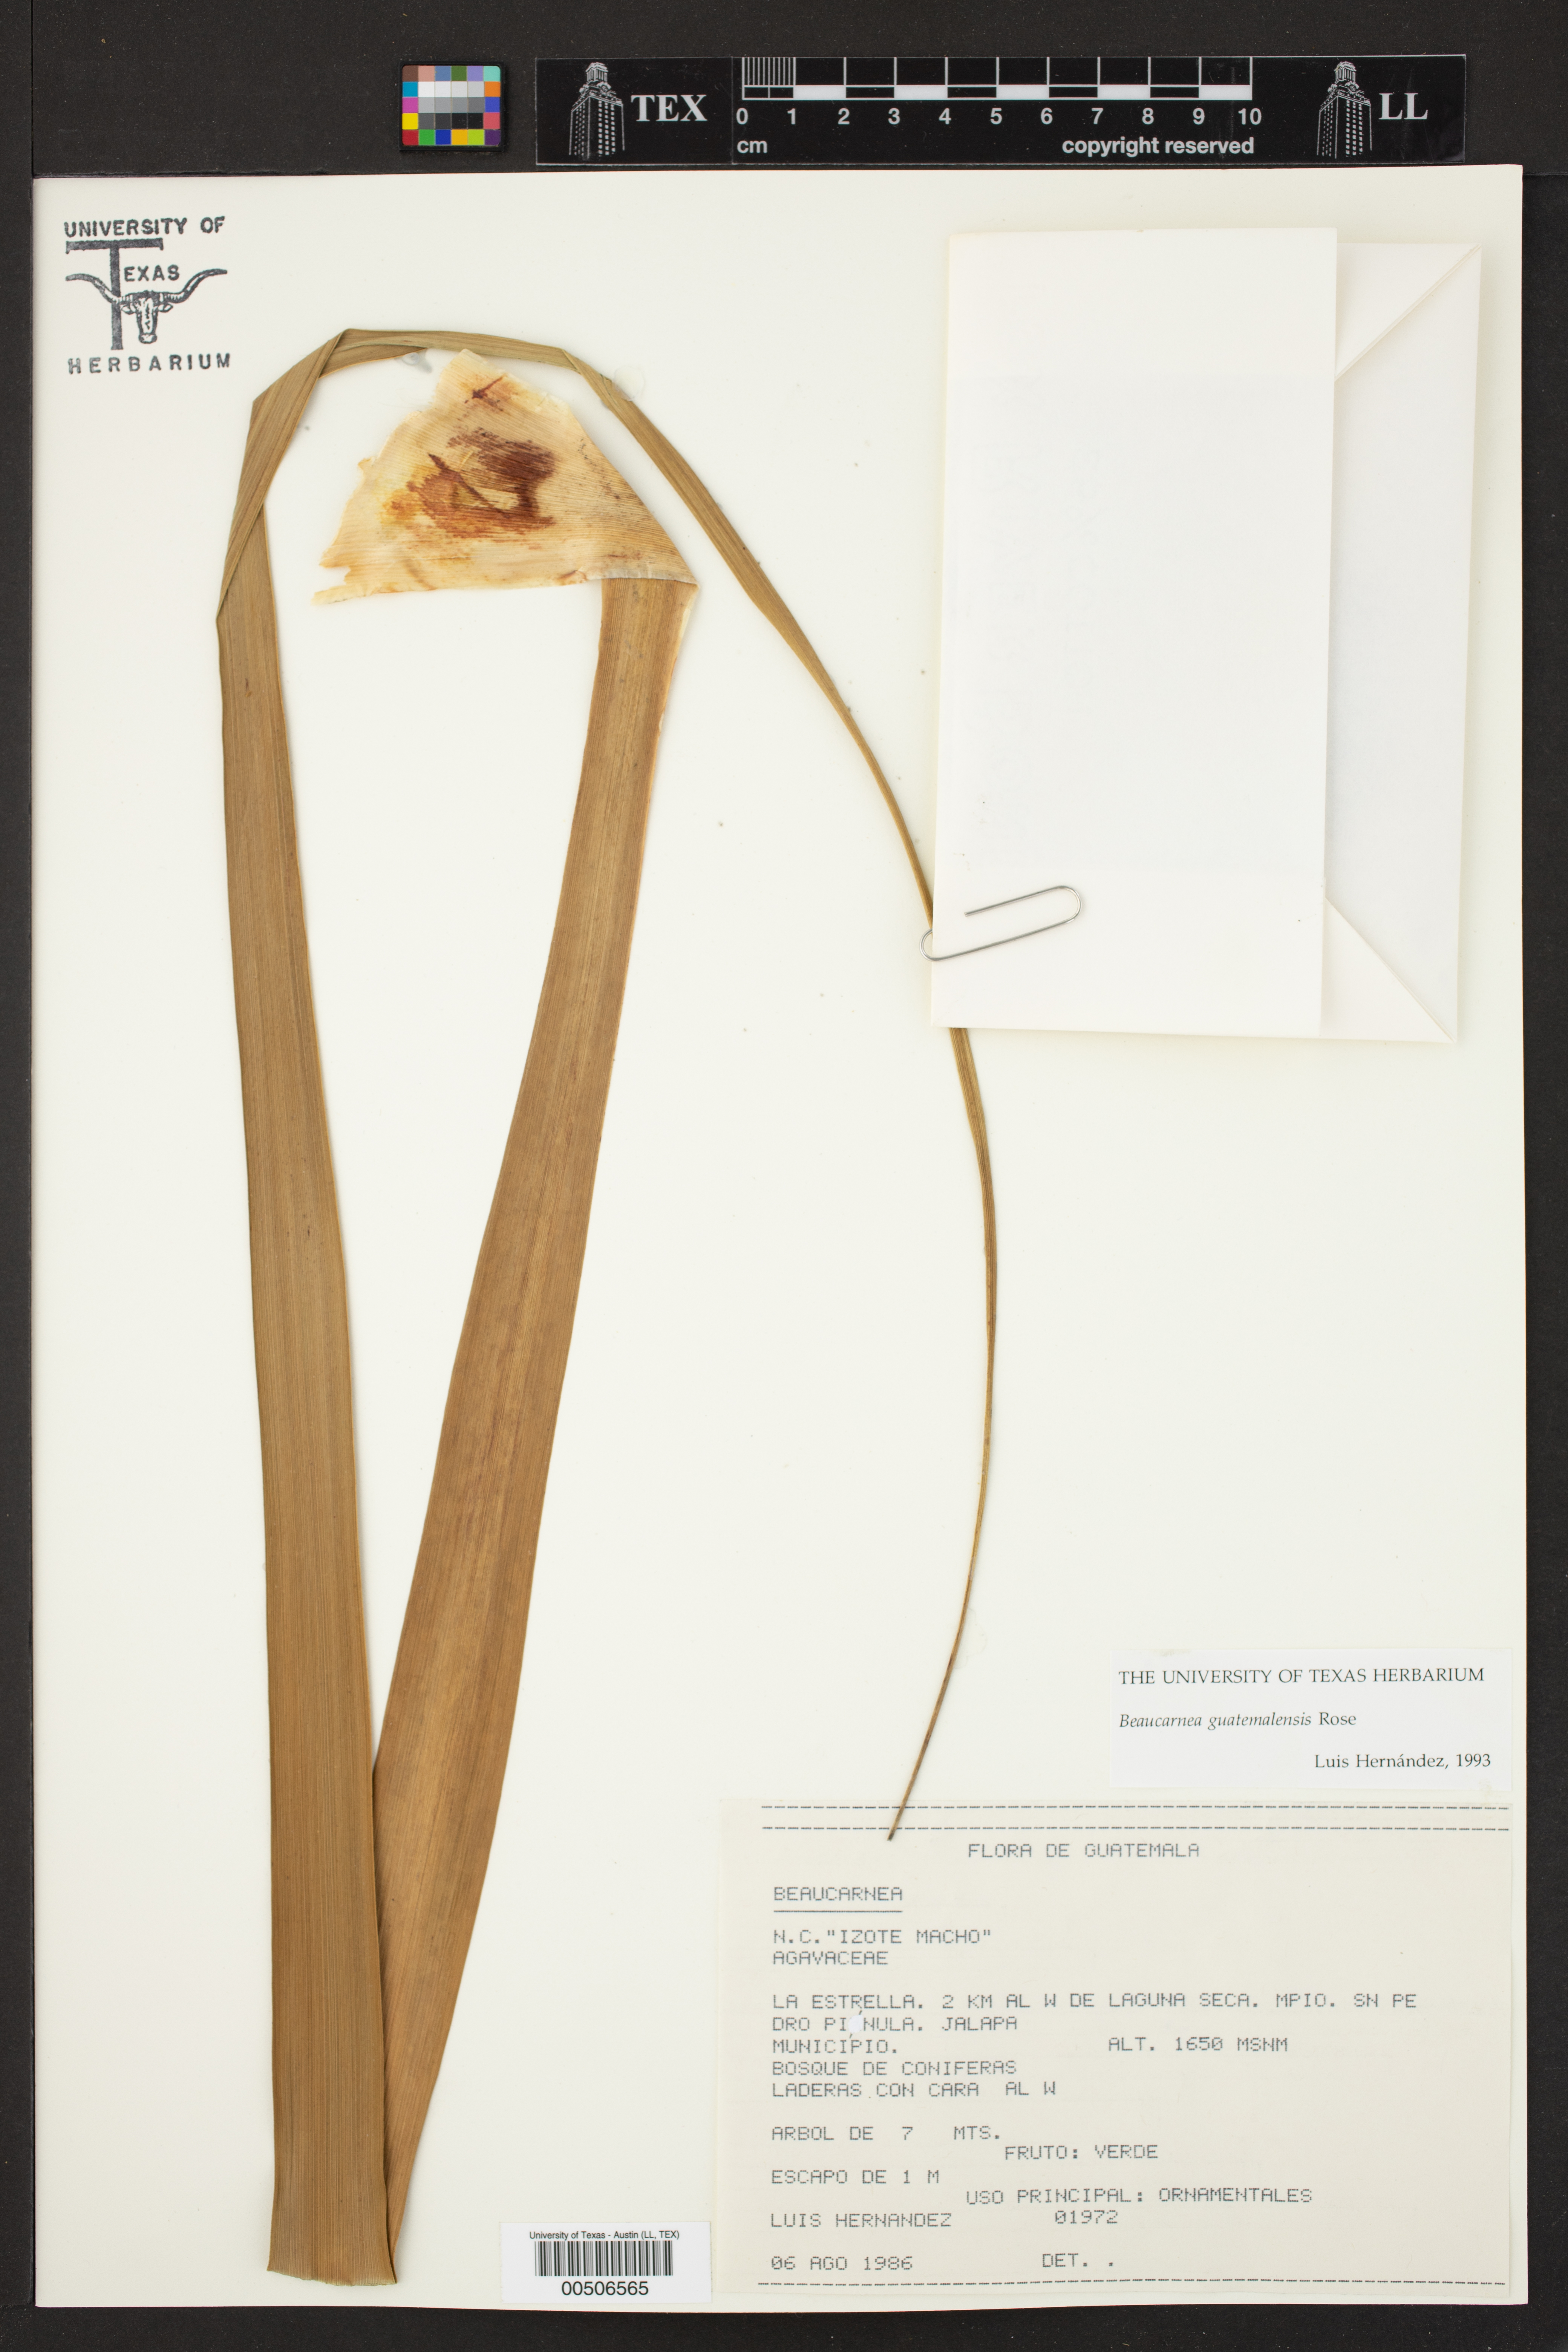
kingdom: Plantae
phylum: Tracheophyta
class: Liliopsida
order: Asparagales
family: Asparagaceae
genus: Beaucarnea
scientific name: Beaucarnea guatemalensis
